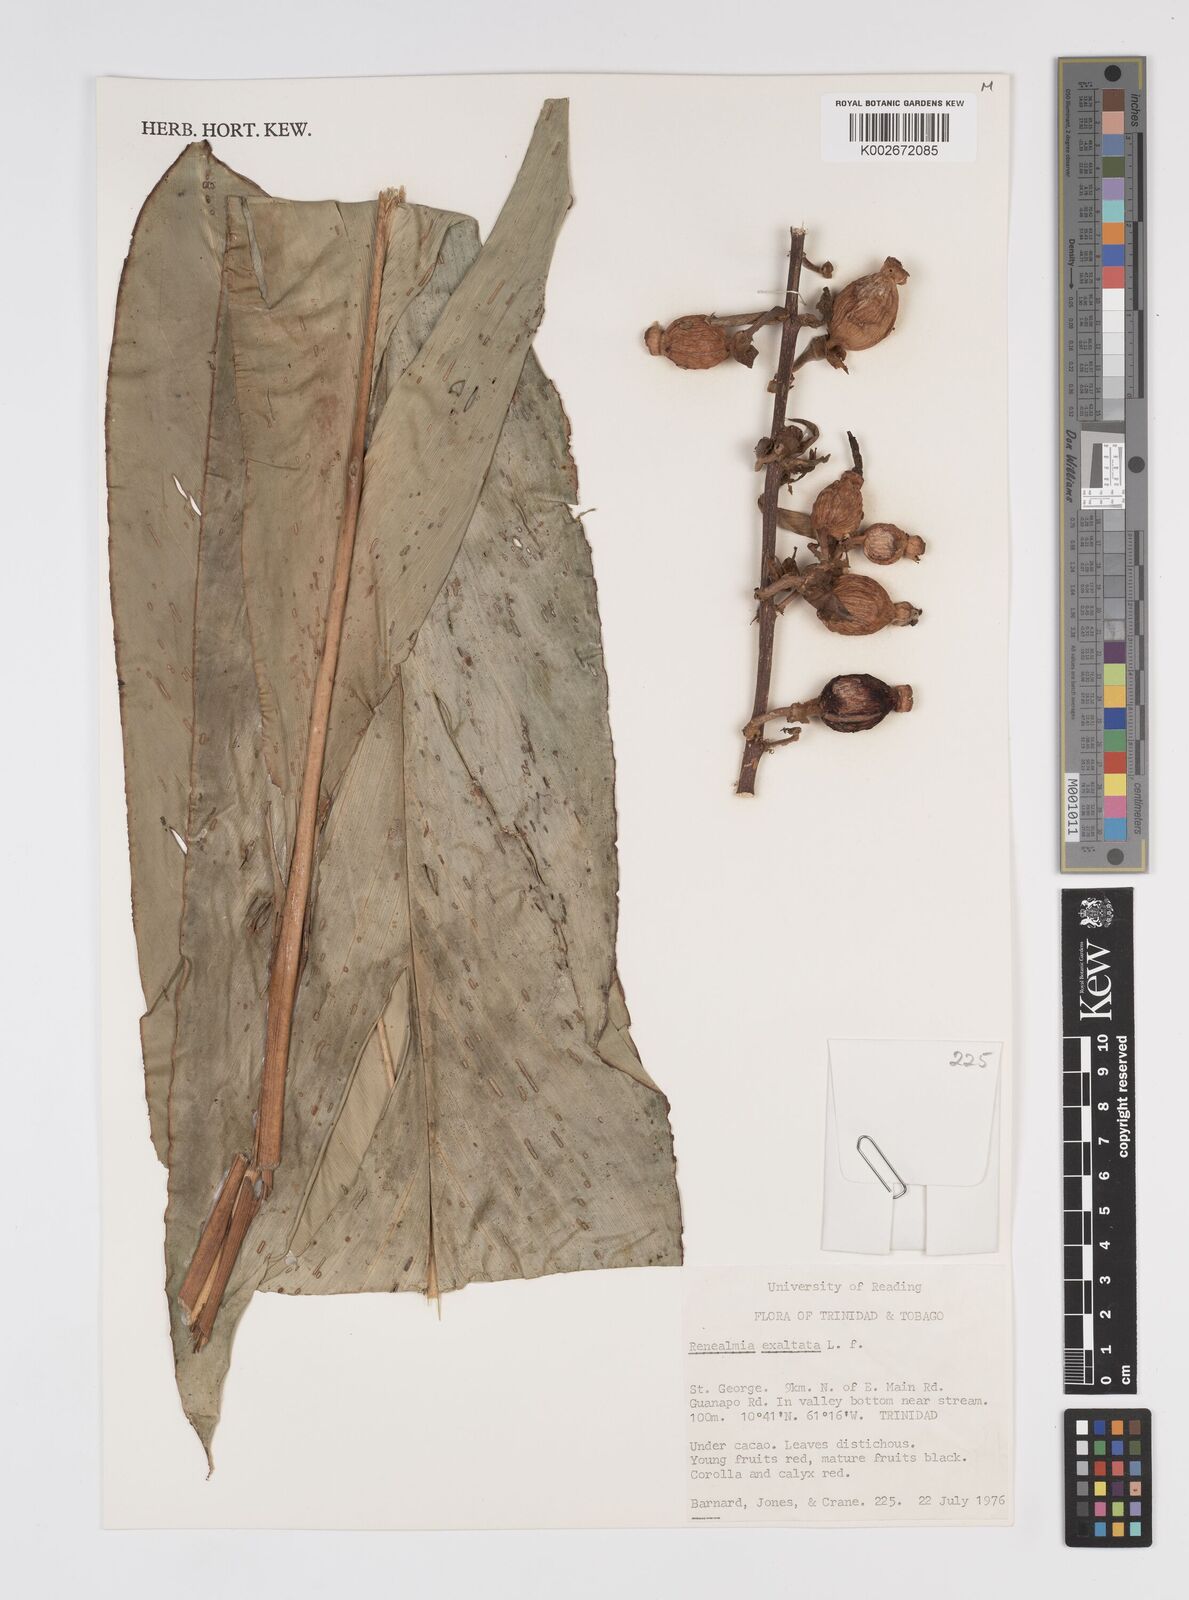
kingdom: Plantae
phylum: Tracheophyta
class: Liliopsida
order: Zingiberales
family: Zingiberaceae
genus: Renealmia
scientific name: Renealmia alpinia
